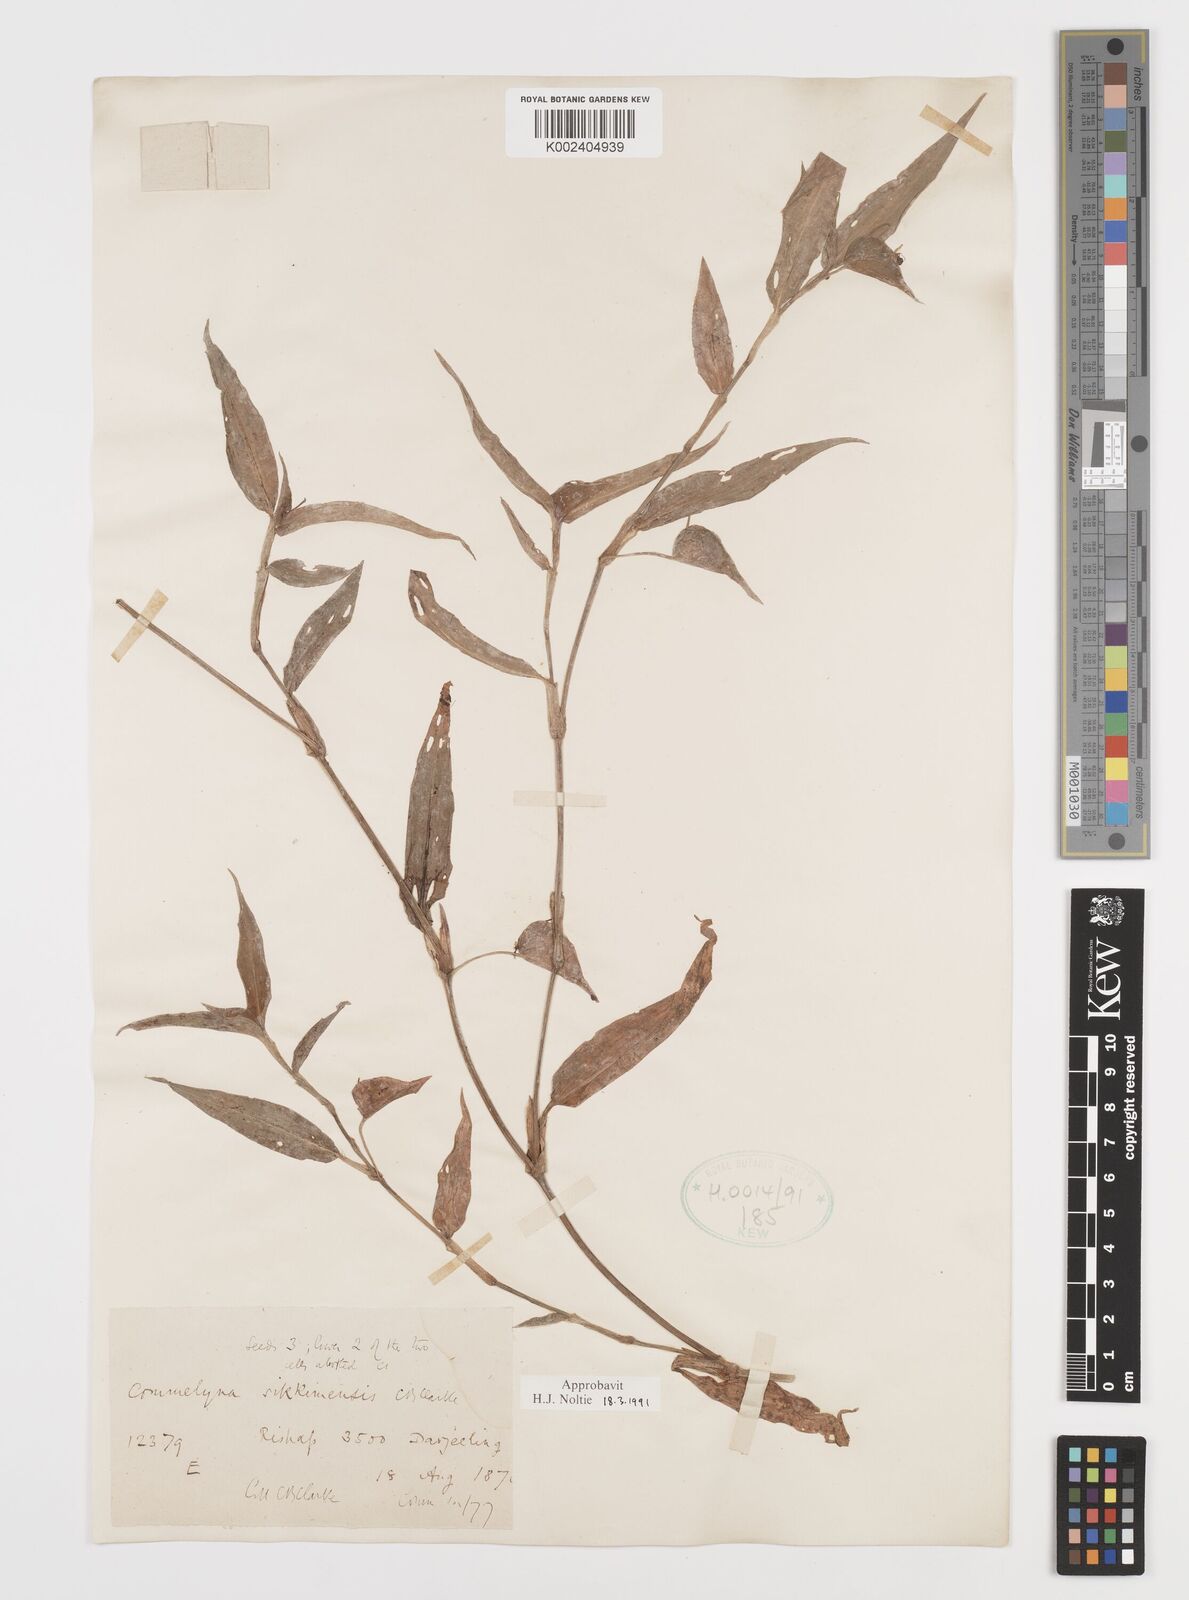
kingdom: Plantae
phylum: Tracheophyta
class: Liliopsida
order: Commelinales
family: Commelinaceae
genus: Commelina
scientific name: Commelina sikkimensis
